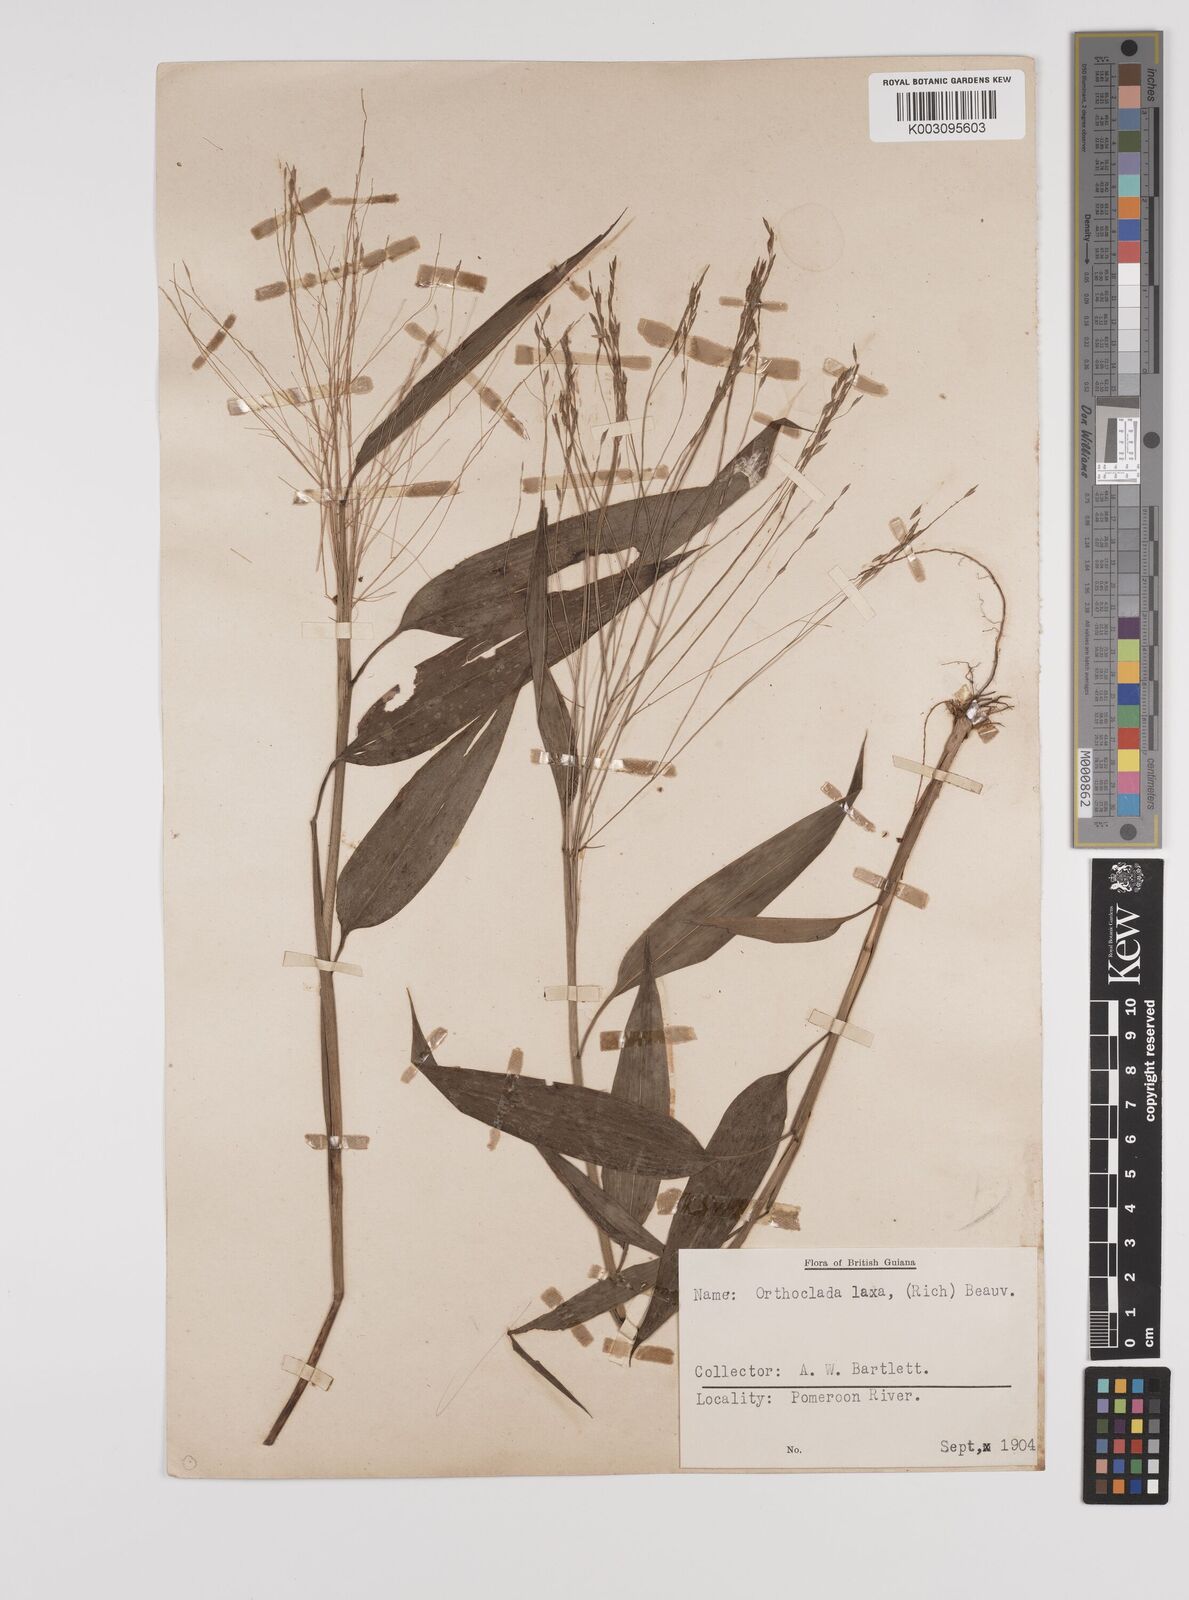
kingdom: Plantae
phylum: Tracheophyta
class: Liliopsida
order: Poales
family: Poaceae
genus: Orthoclada
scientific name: Orthoclada laxa
